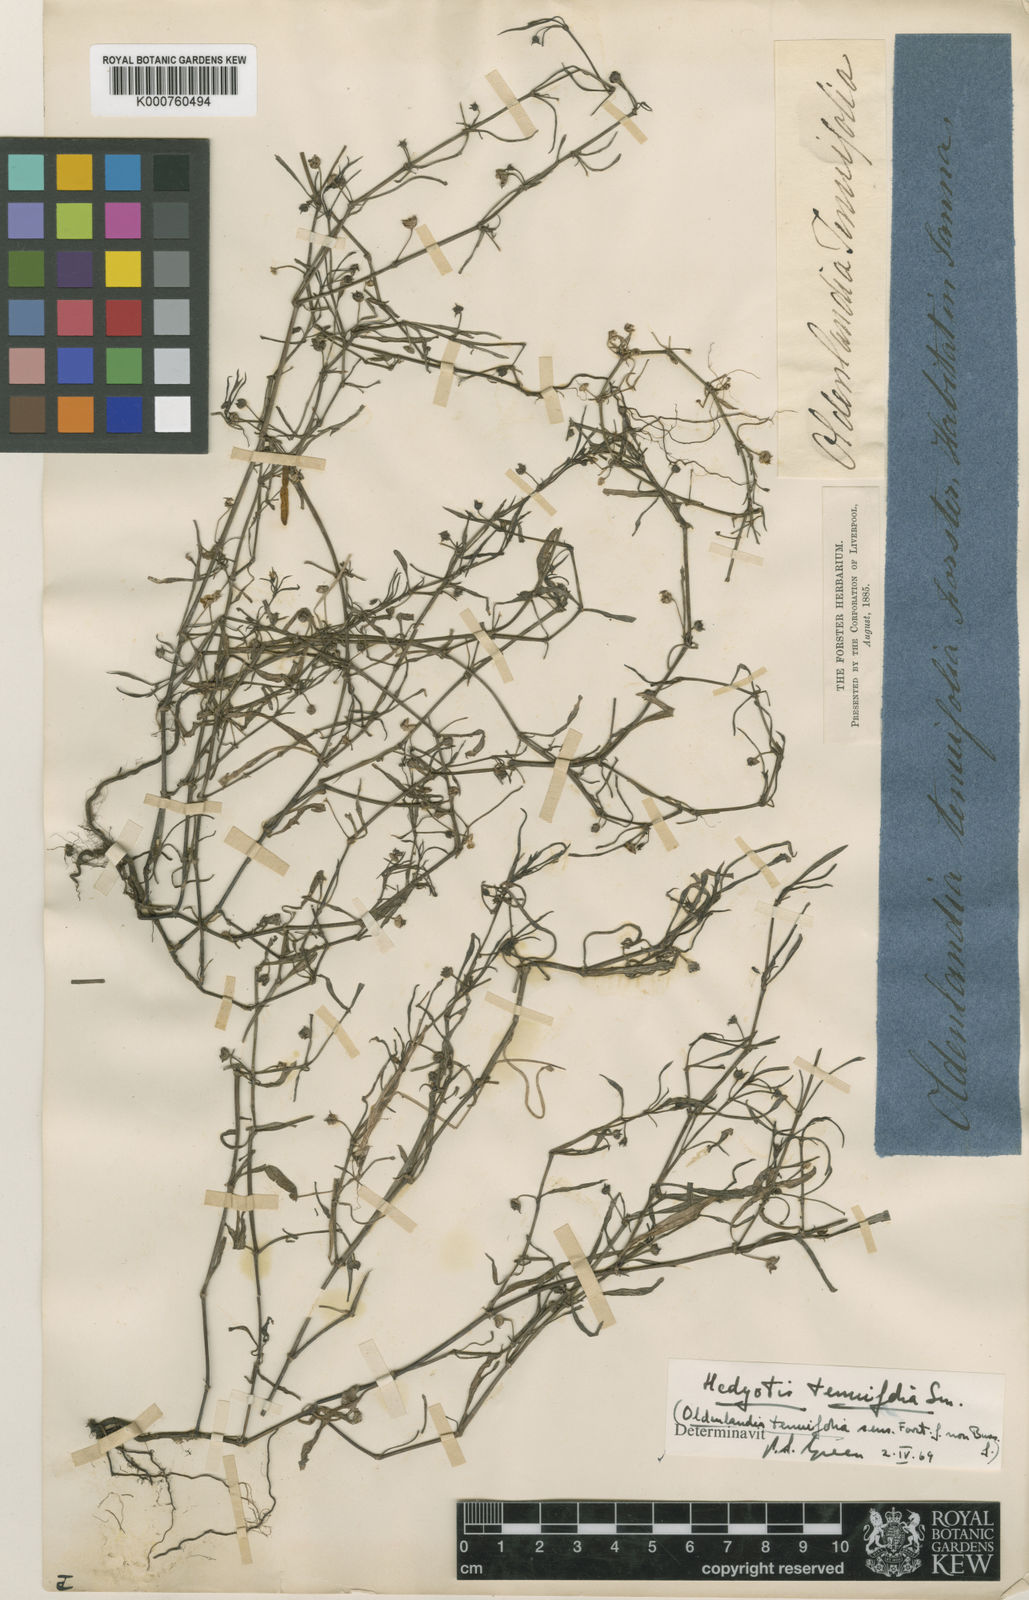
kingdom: Plantae
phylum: Tracheophyta
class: Magnoliopsida
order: Gentianales
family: Rubiaceae
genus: Scleromitrion
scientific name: Scleromitrion tenuifolium
